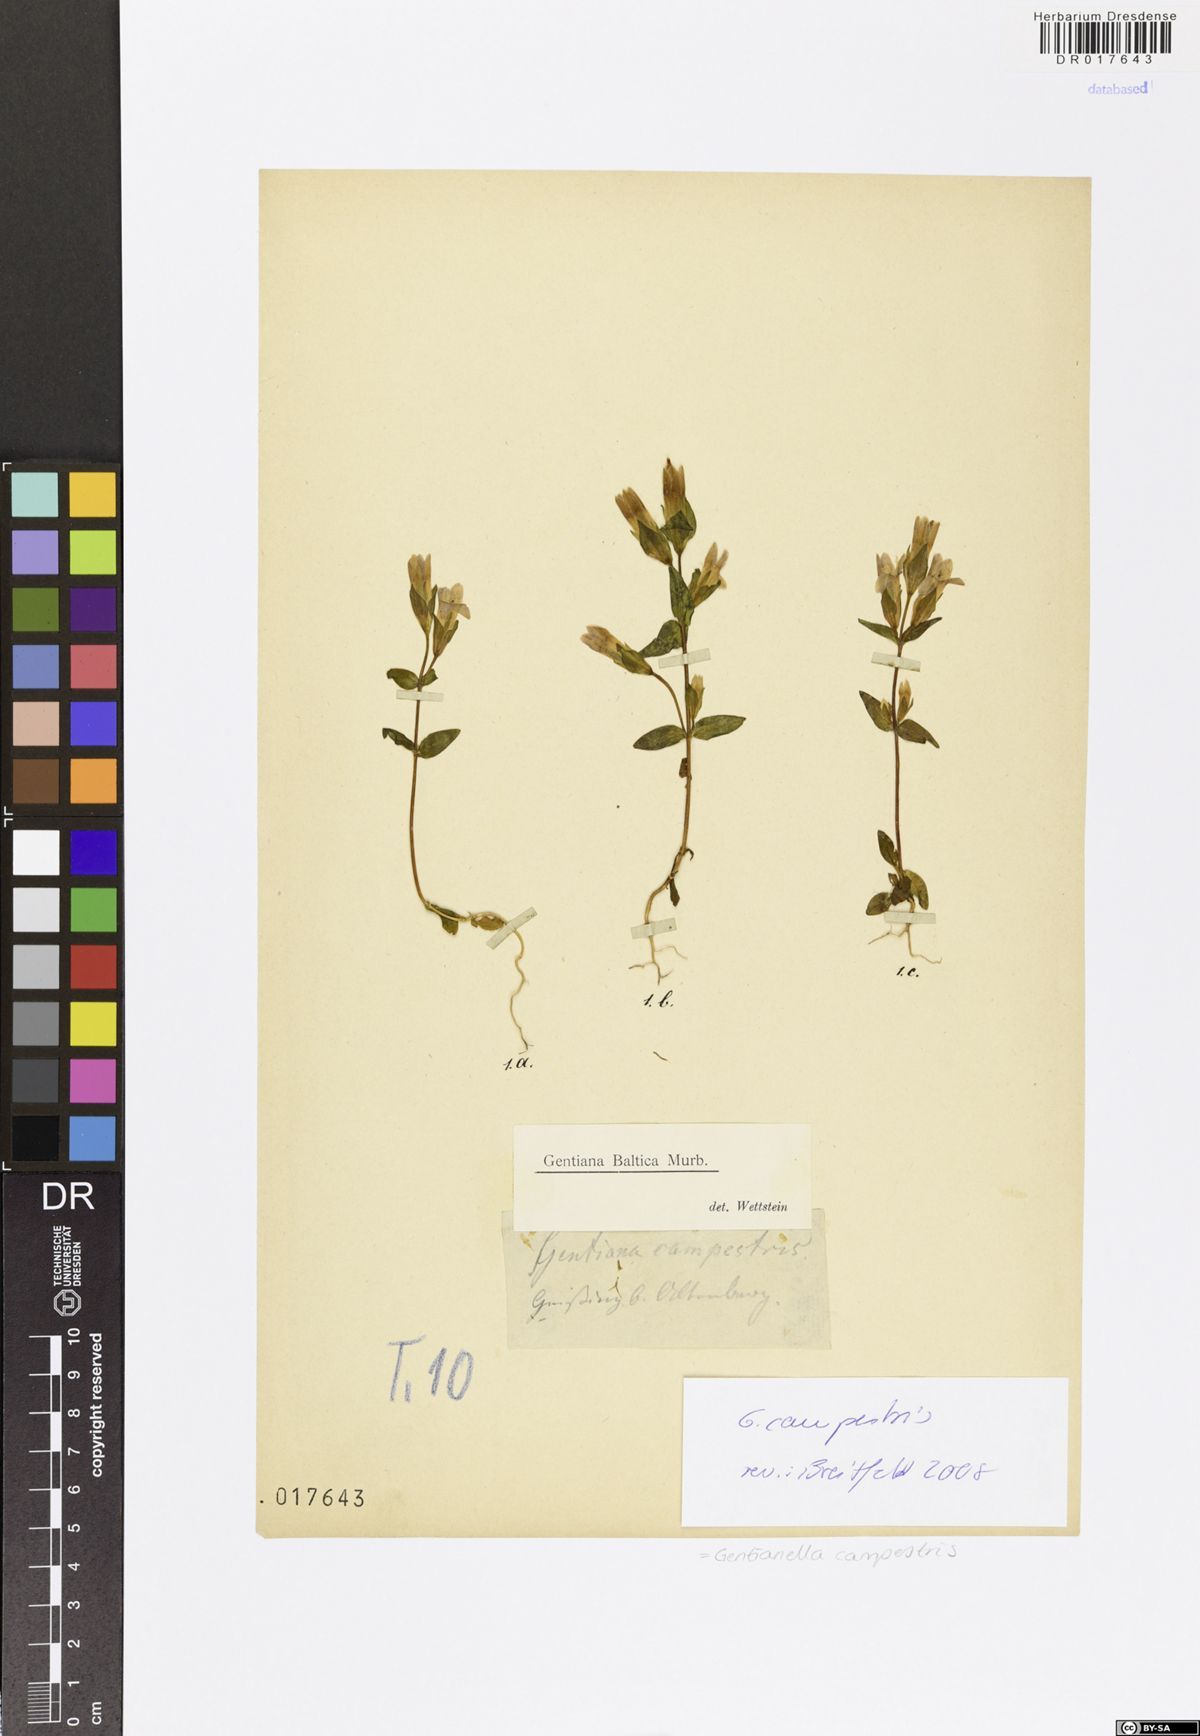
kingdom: Plantae
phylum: Tracheophyta
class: Magnoliopsida
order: Gentianales
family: Gentianaceae
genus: Gentianella
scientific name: Gentianella campestris
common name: Field gentian
